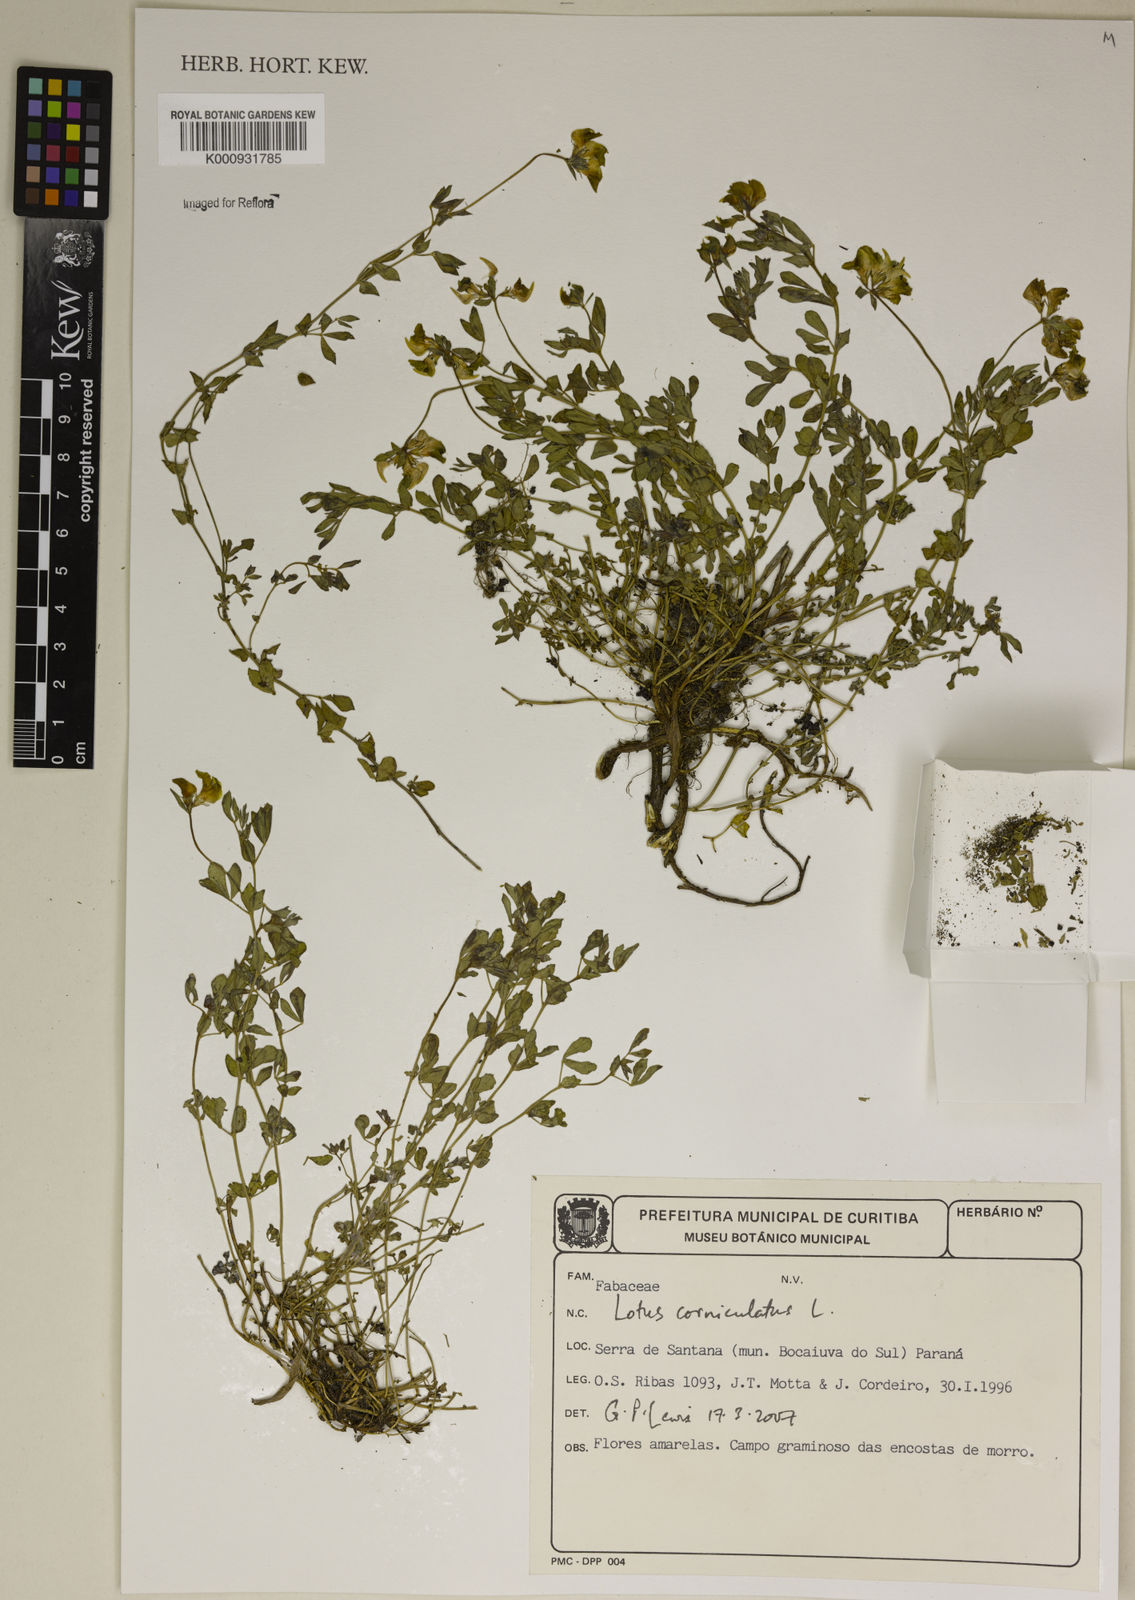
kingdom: Plantae
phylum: Tracheophyta
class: Magnoliopsida
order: Fabales
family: Fabaceae
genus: Lotus
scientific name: Lotus corniculatus
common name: Common bird's-foot-trefoil
